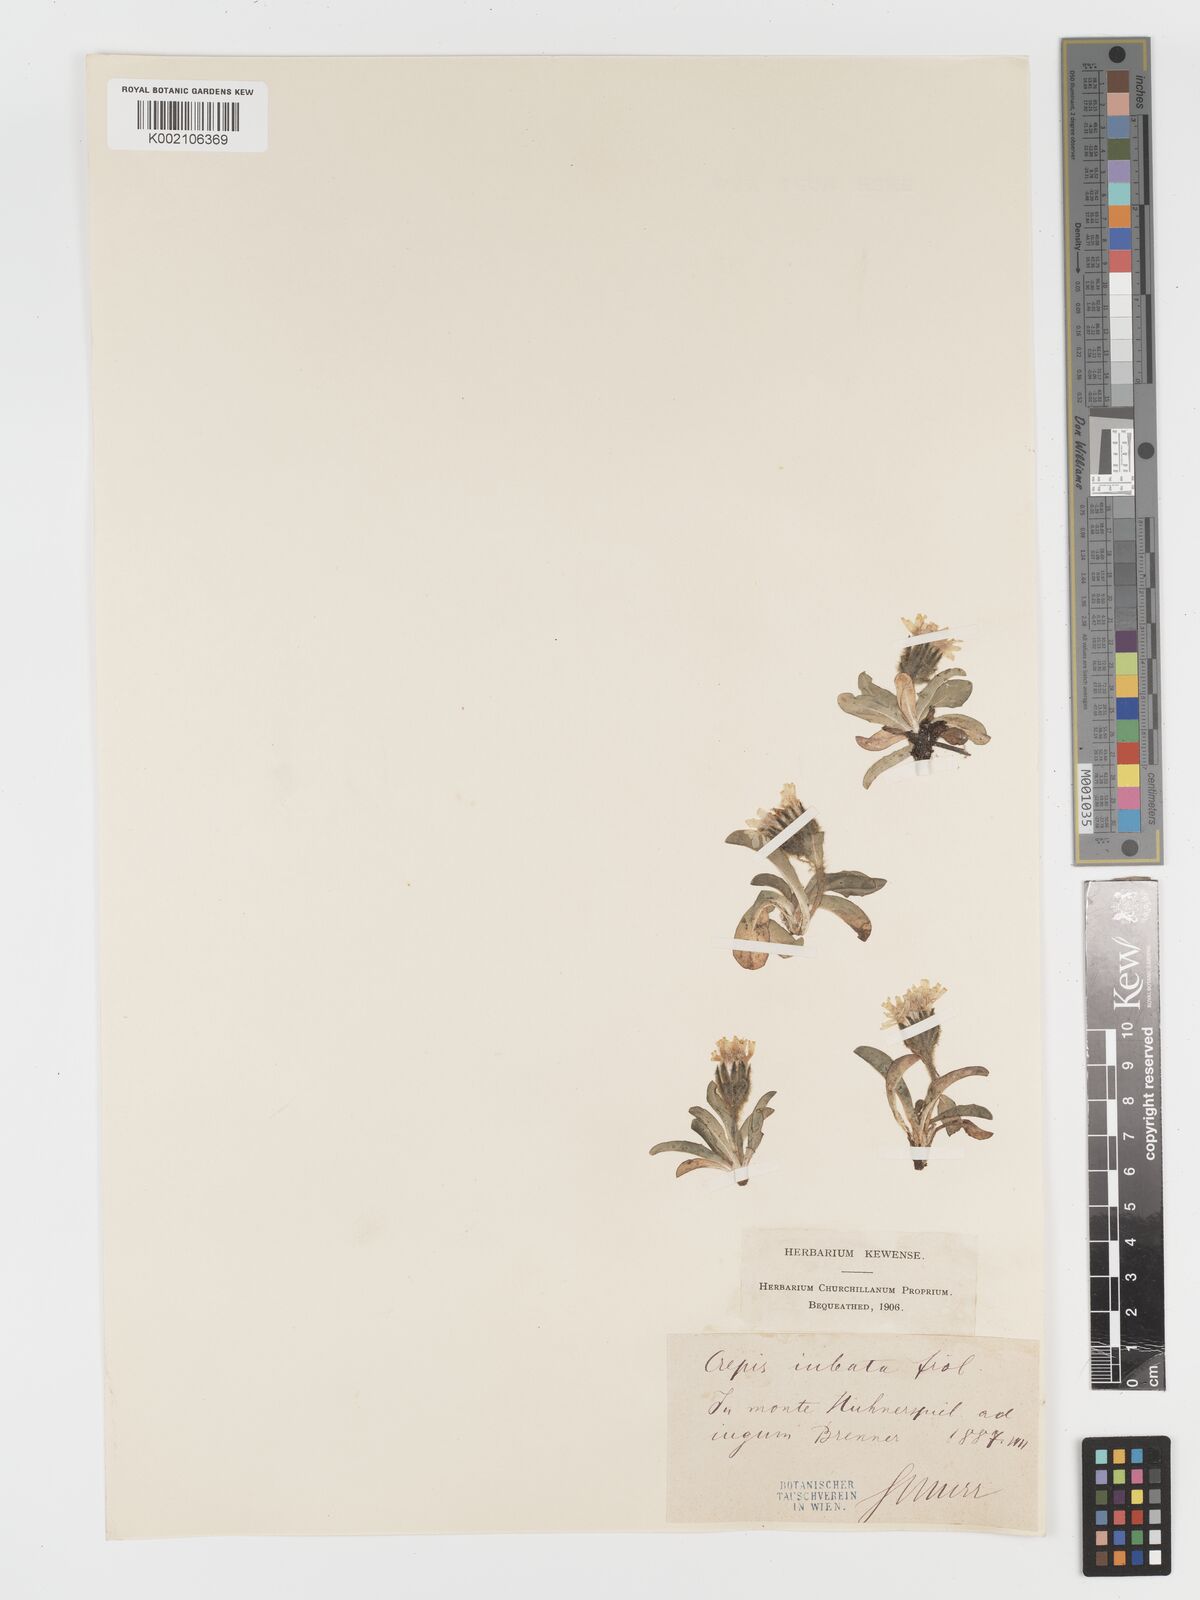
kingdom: Plantae
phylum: Tracheophyta
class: Magnoliopsida
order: Asterales
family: Asteraceae
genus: Crepis
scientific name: Crepis
